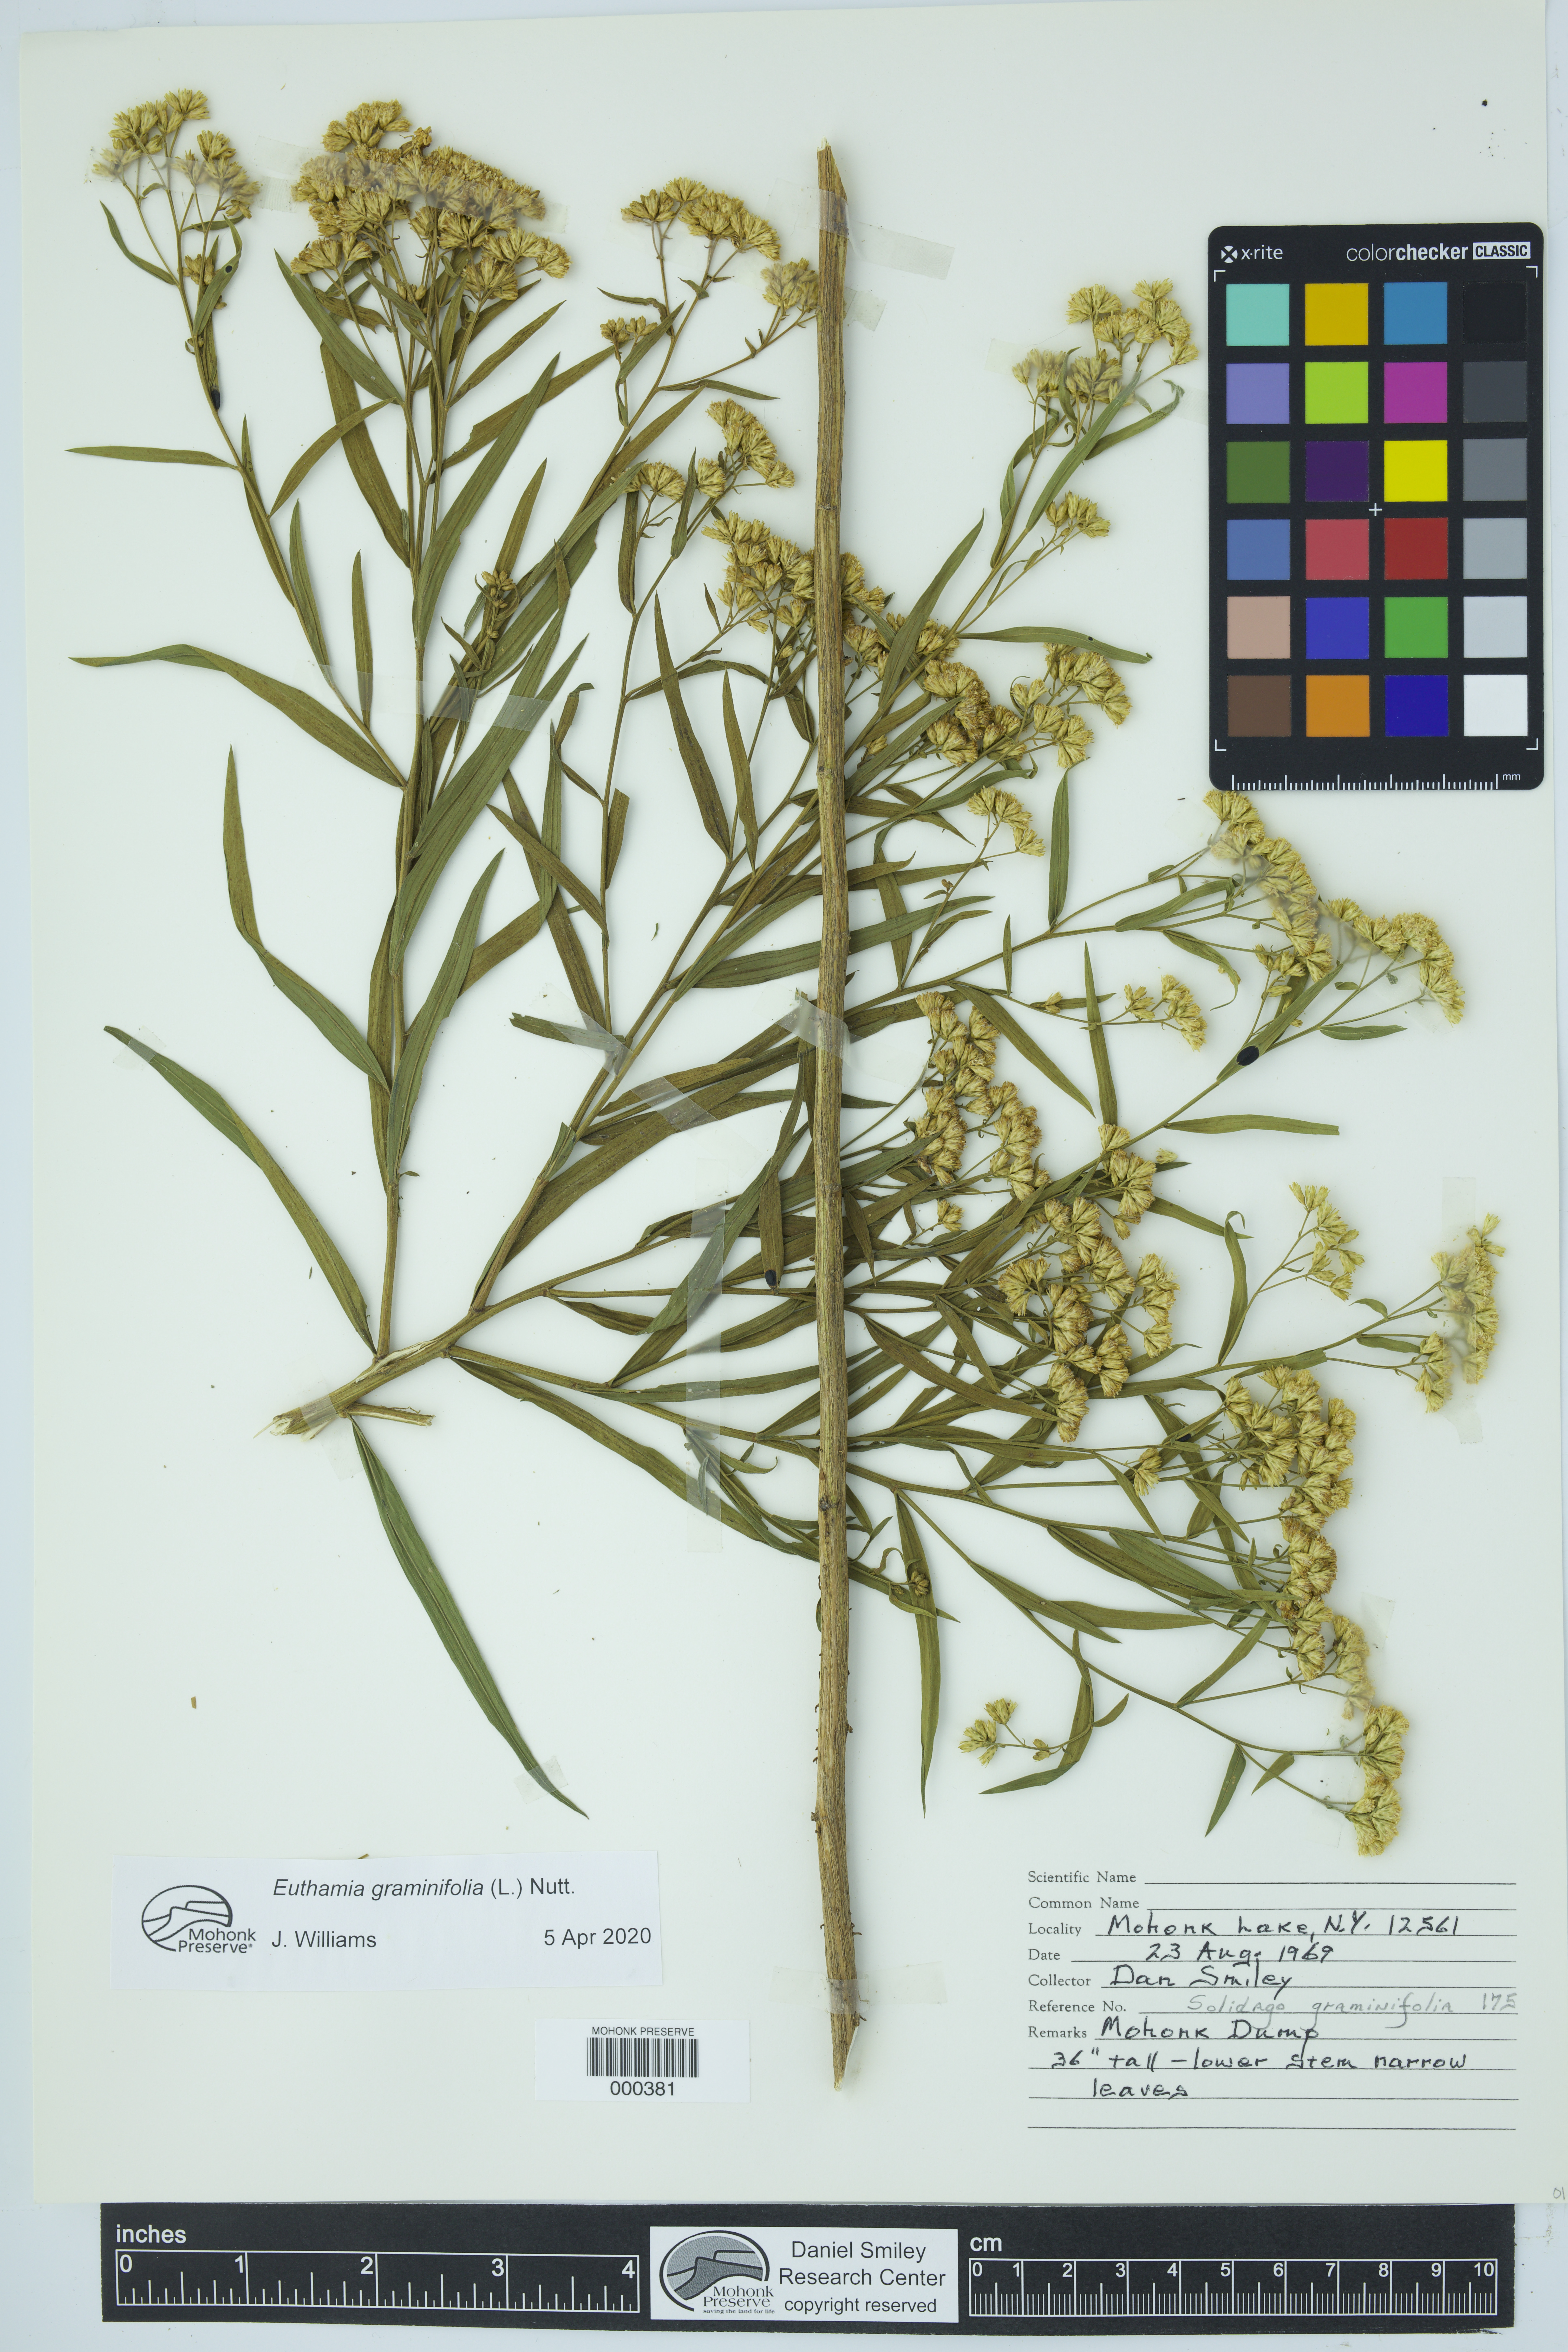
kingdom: Plantae
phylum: Tracheophyta
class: Magnoliopsida
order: Asterales
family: Asteraceae
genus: Euthamia
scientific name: Euthamia graminifolia
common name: Common goldentop
